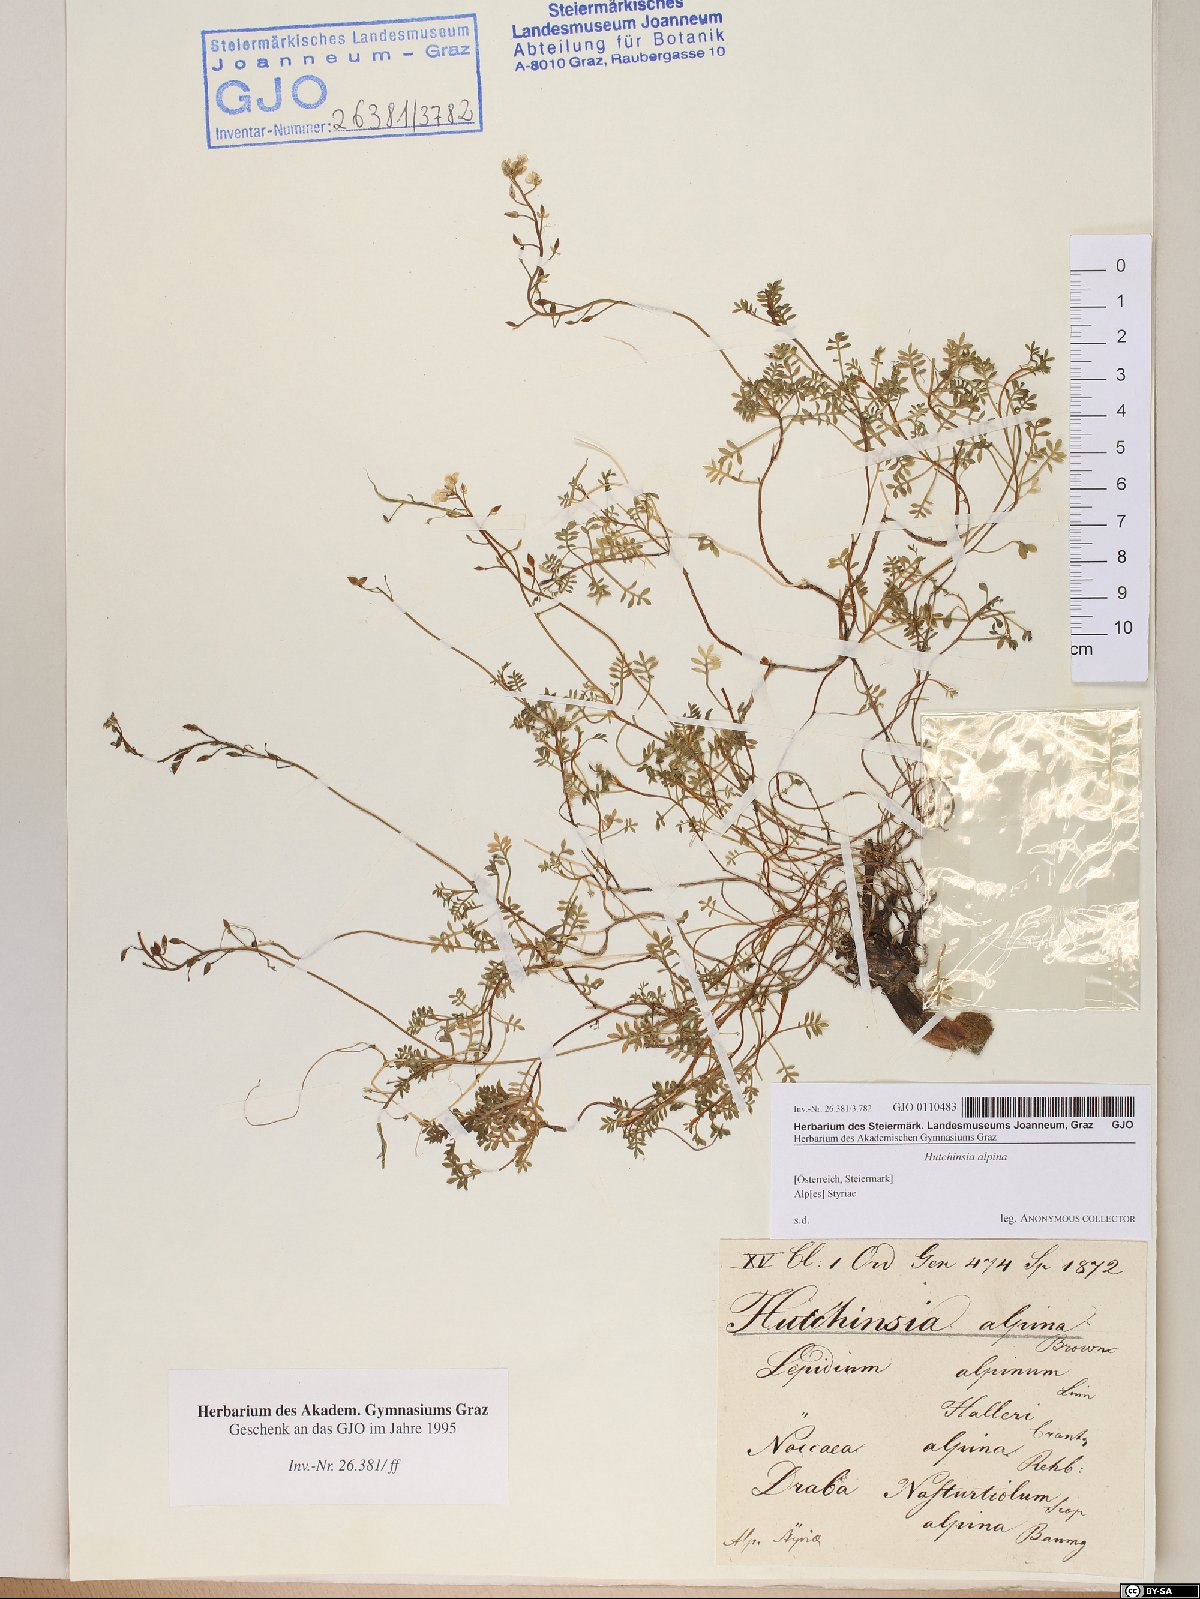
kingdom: Plantae
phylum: Tracheophyta
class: Magnoliopsida
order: Brassicales
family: Brassicaceae
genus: Hornungia
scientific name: Hornungia alpina
